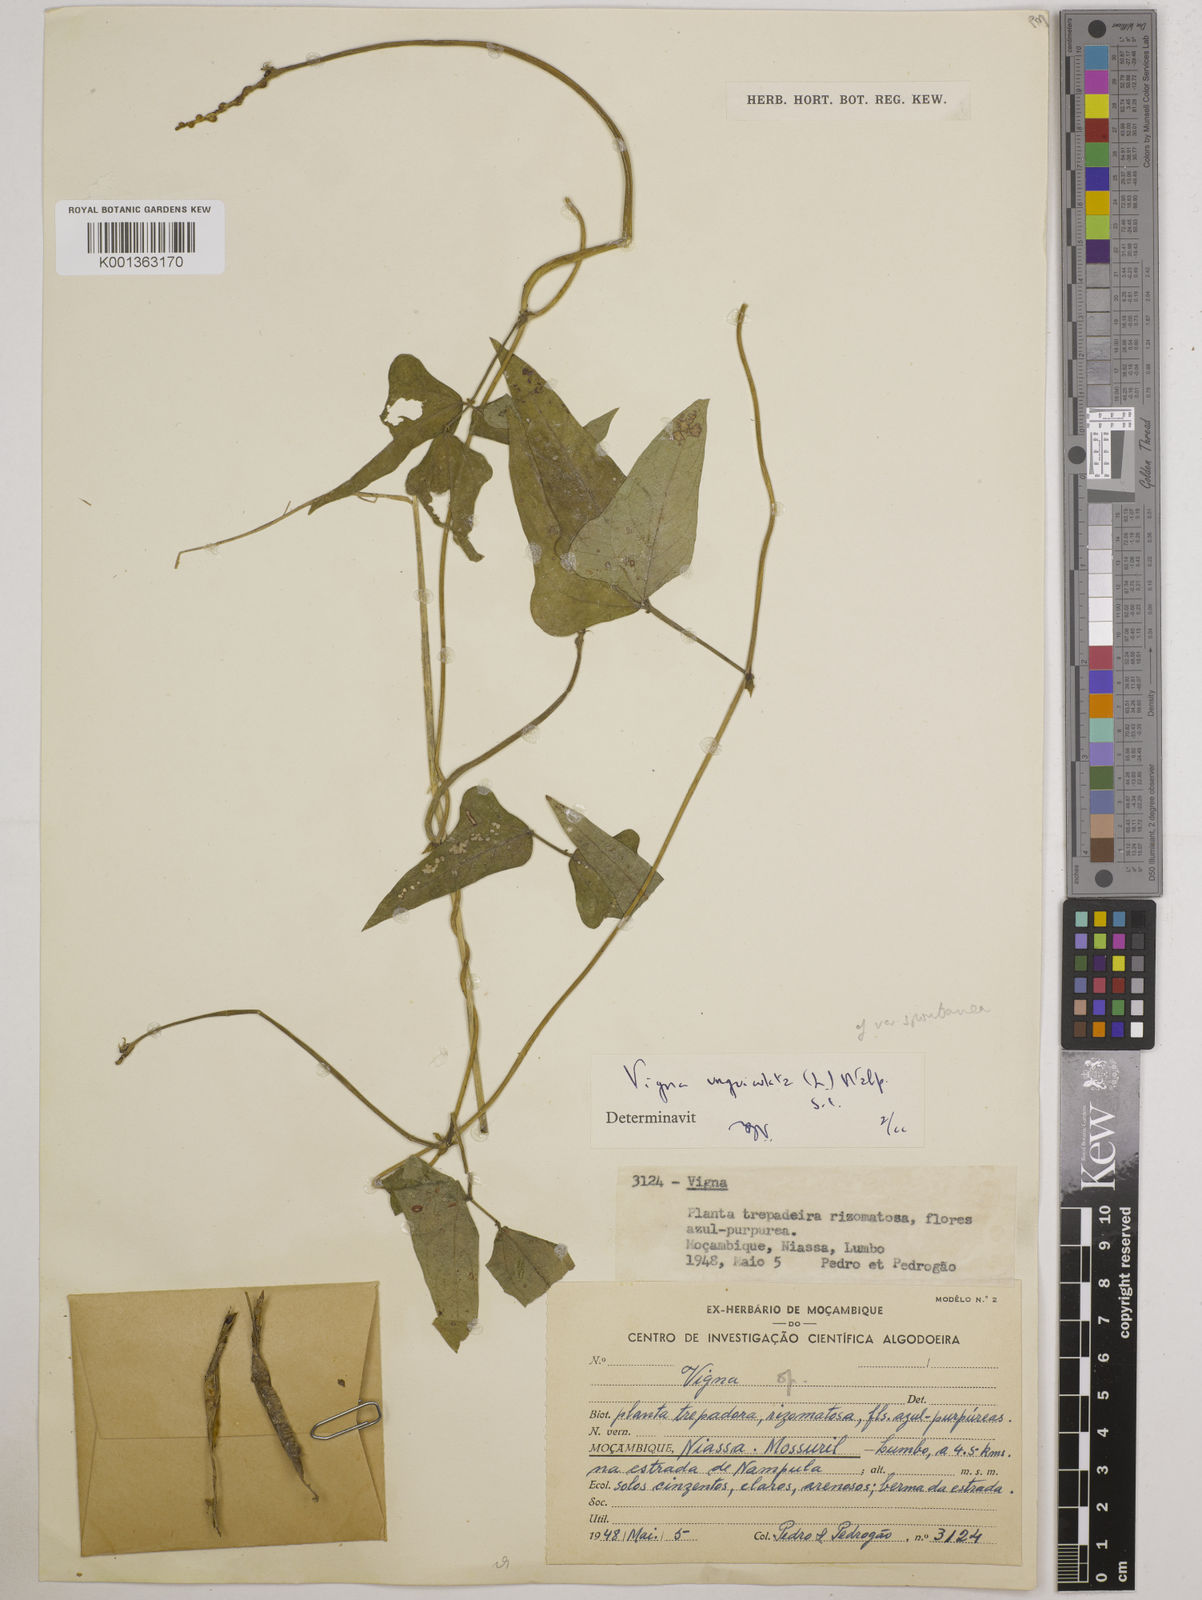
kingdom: Plantae
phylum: Tracheophyta
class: Magnoliopsida
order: Fabales
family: Fabaceae
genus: Vigna
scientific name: Vigna unguiculata
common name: Cowpea
